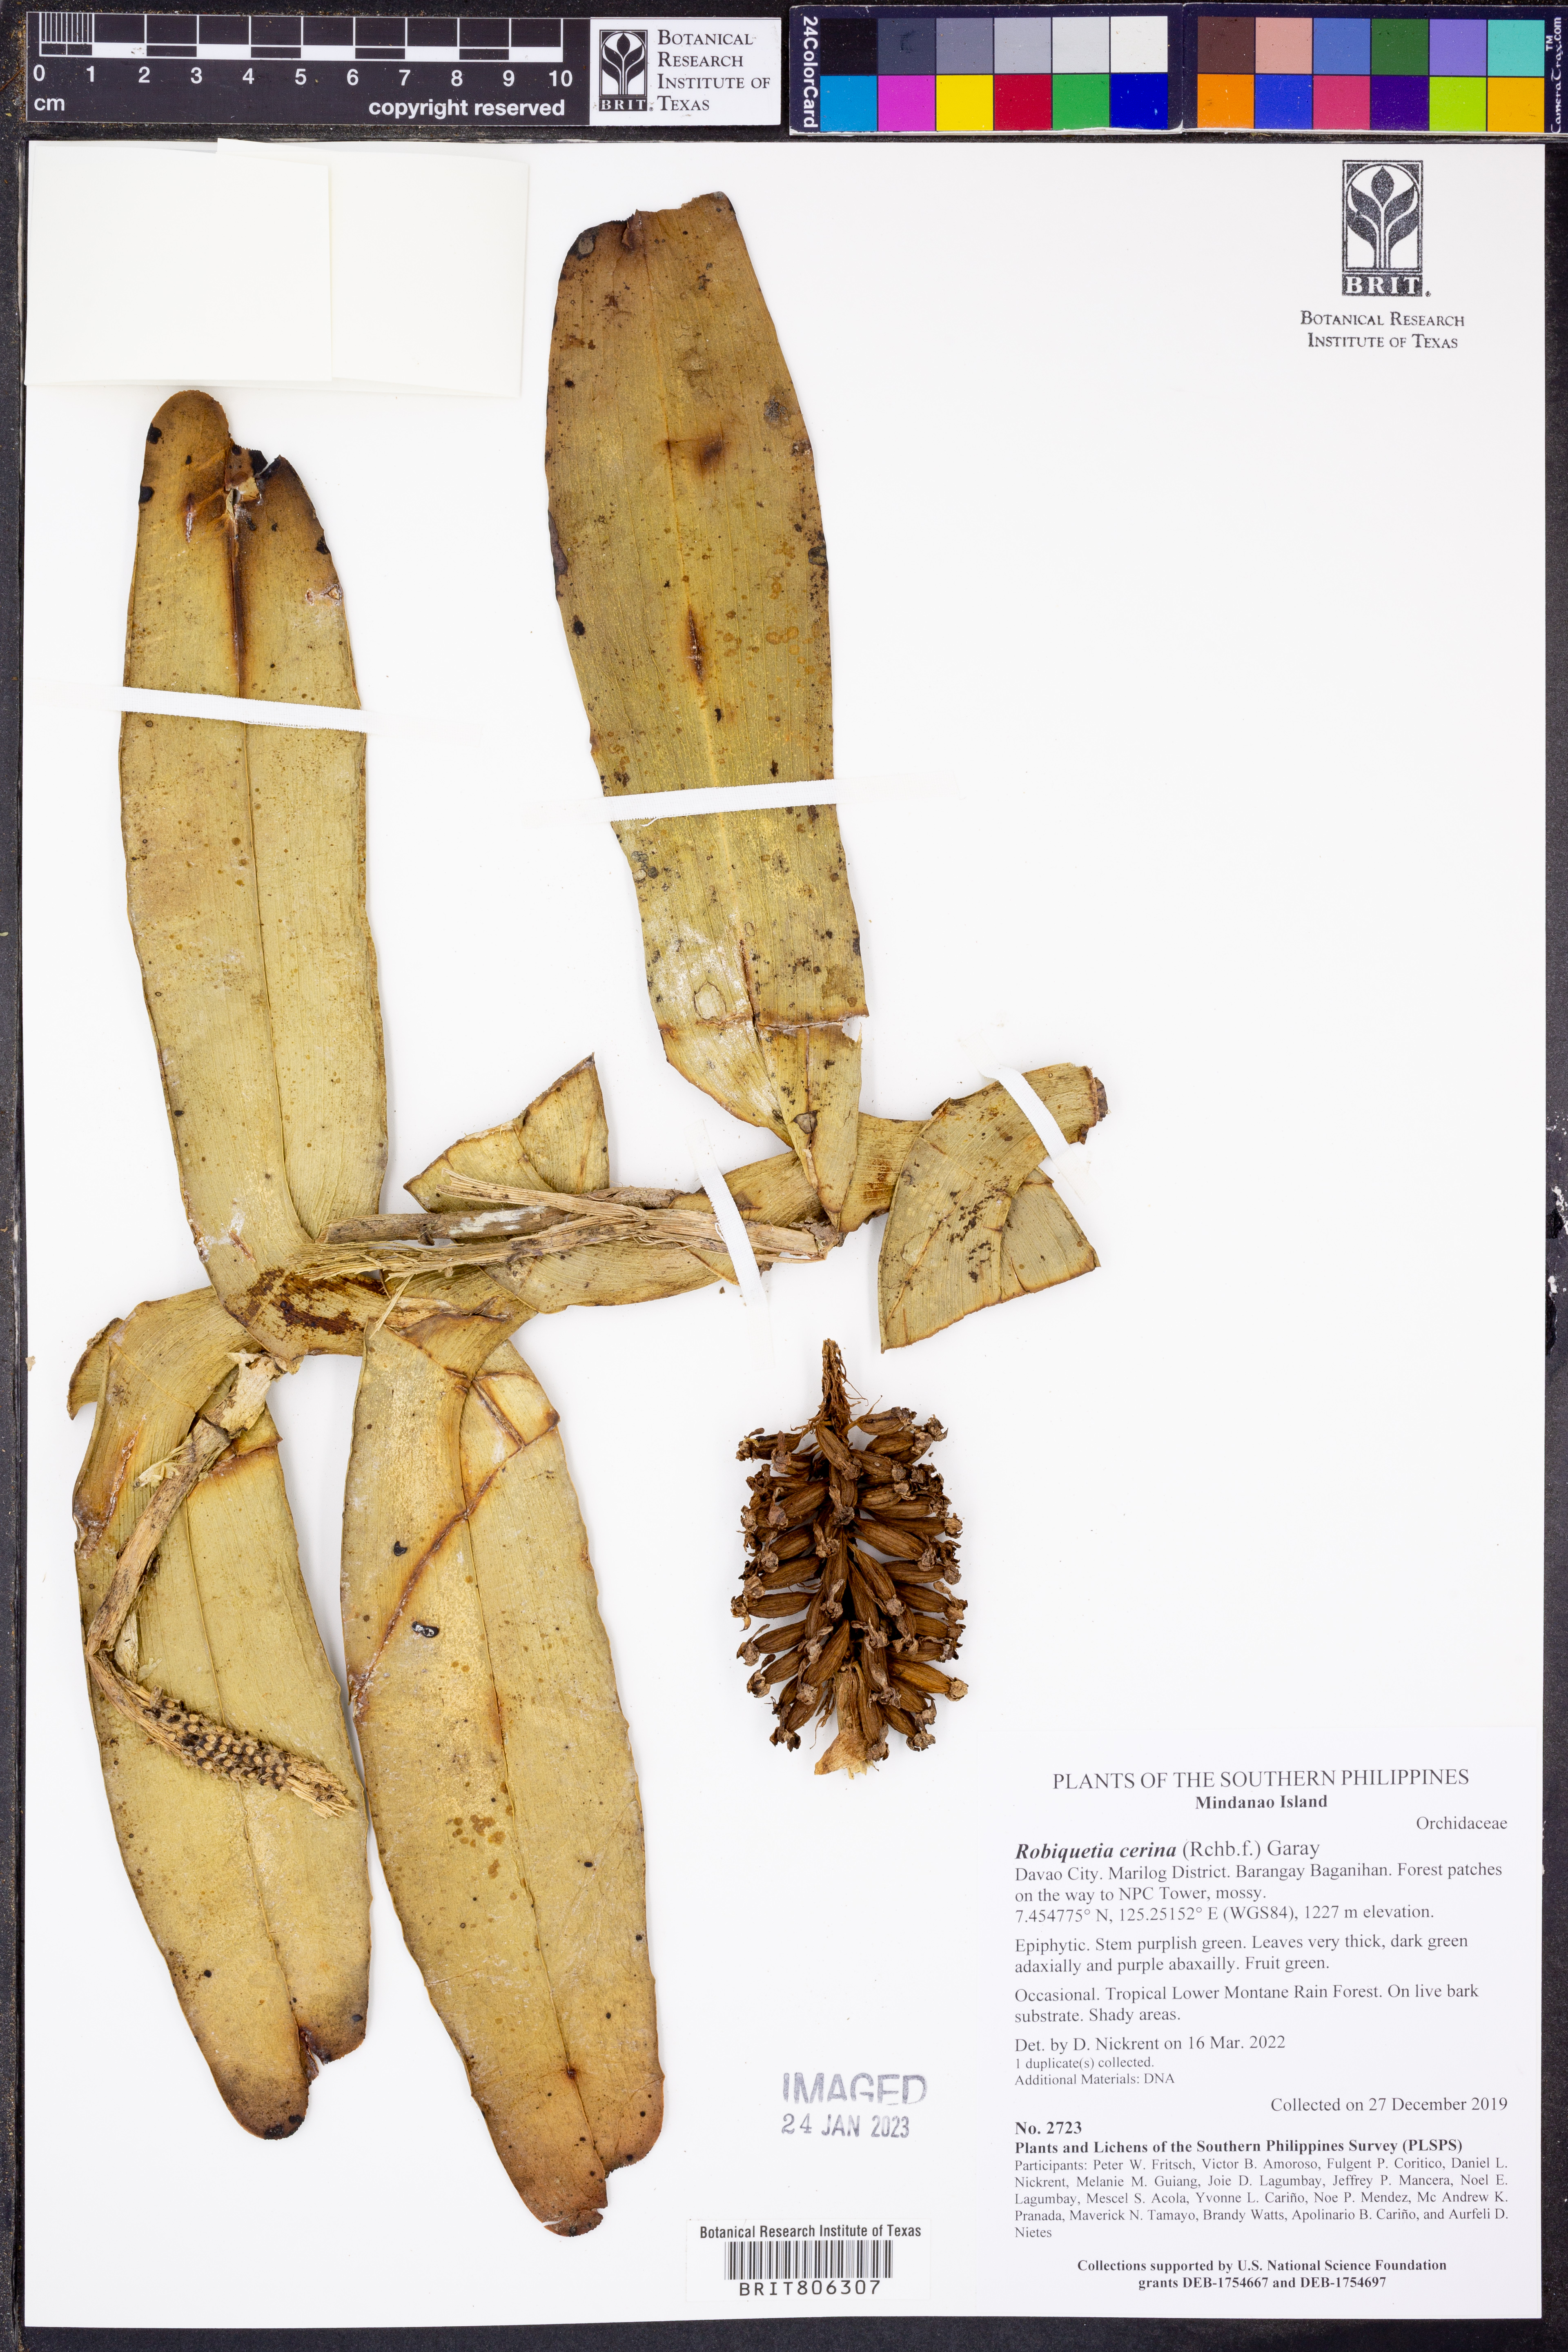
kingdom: Plantae
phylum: Tracheophyta
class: Liliopsida
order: Asparagales
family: Orchidaceae
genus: Robiquetia
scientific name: Robiquetia cerina
